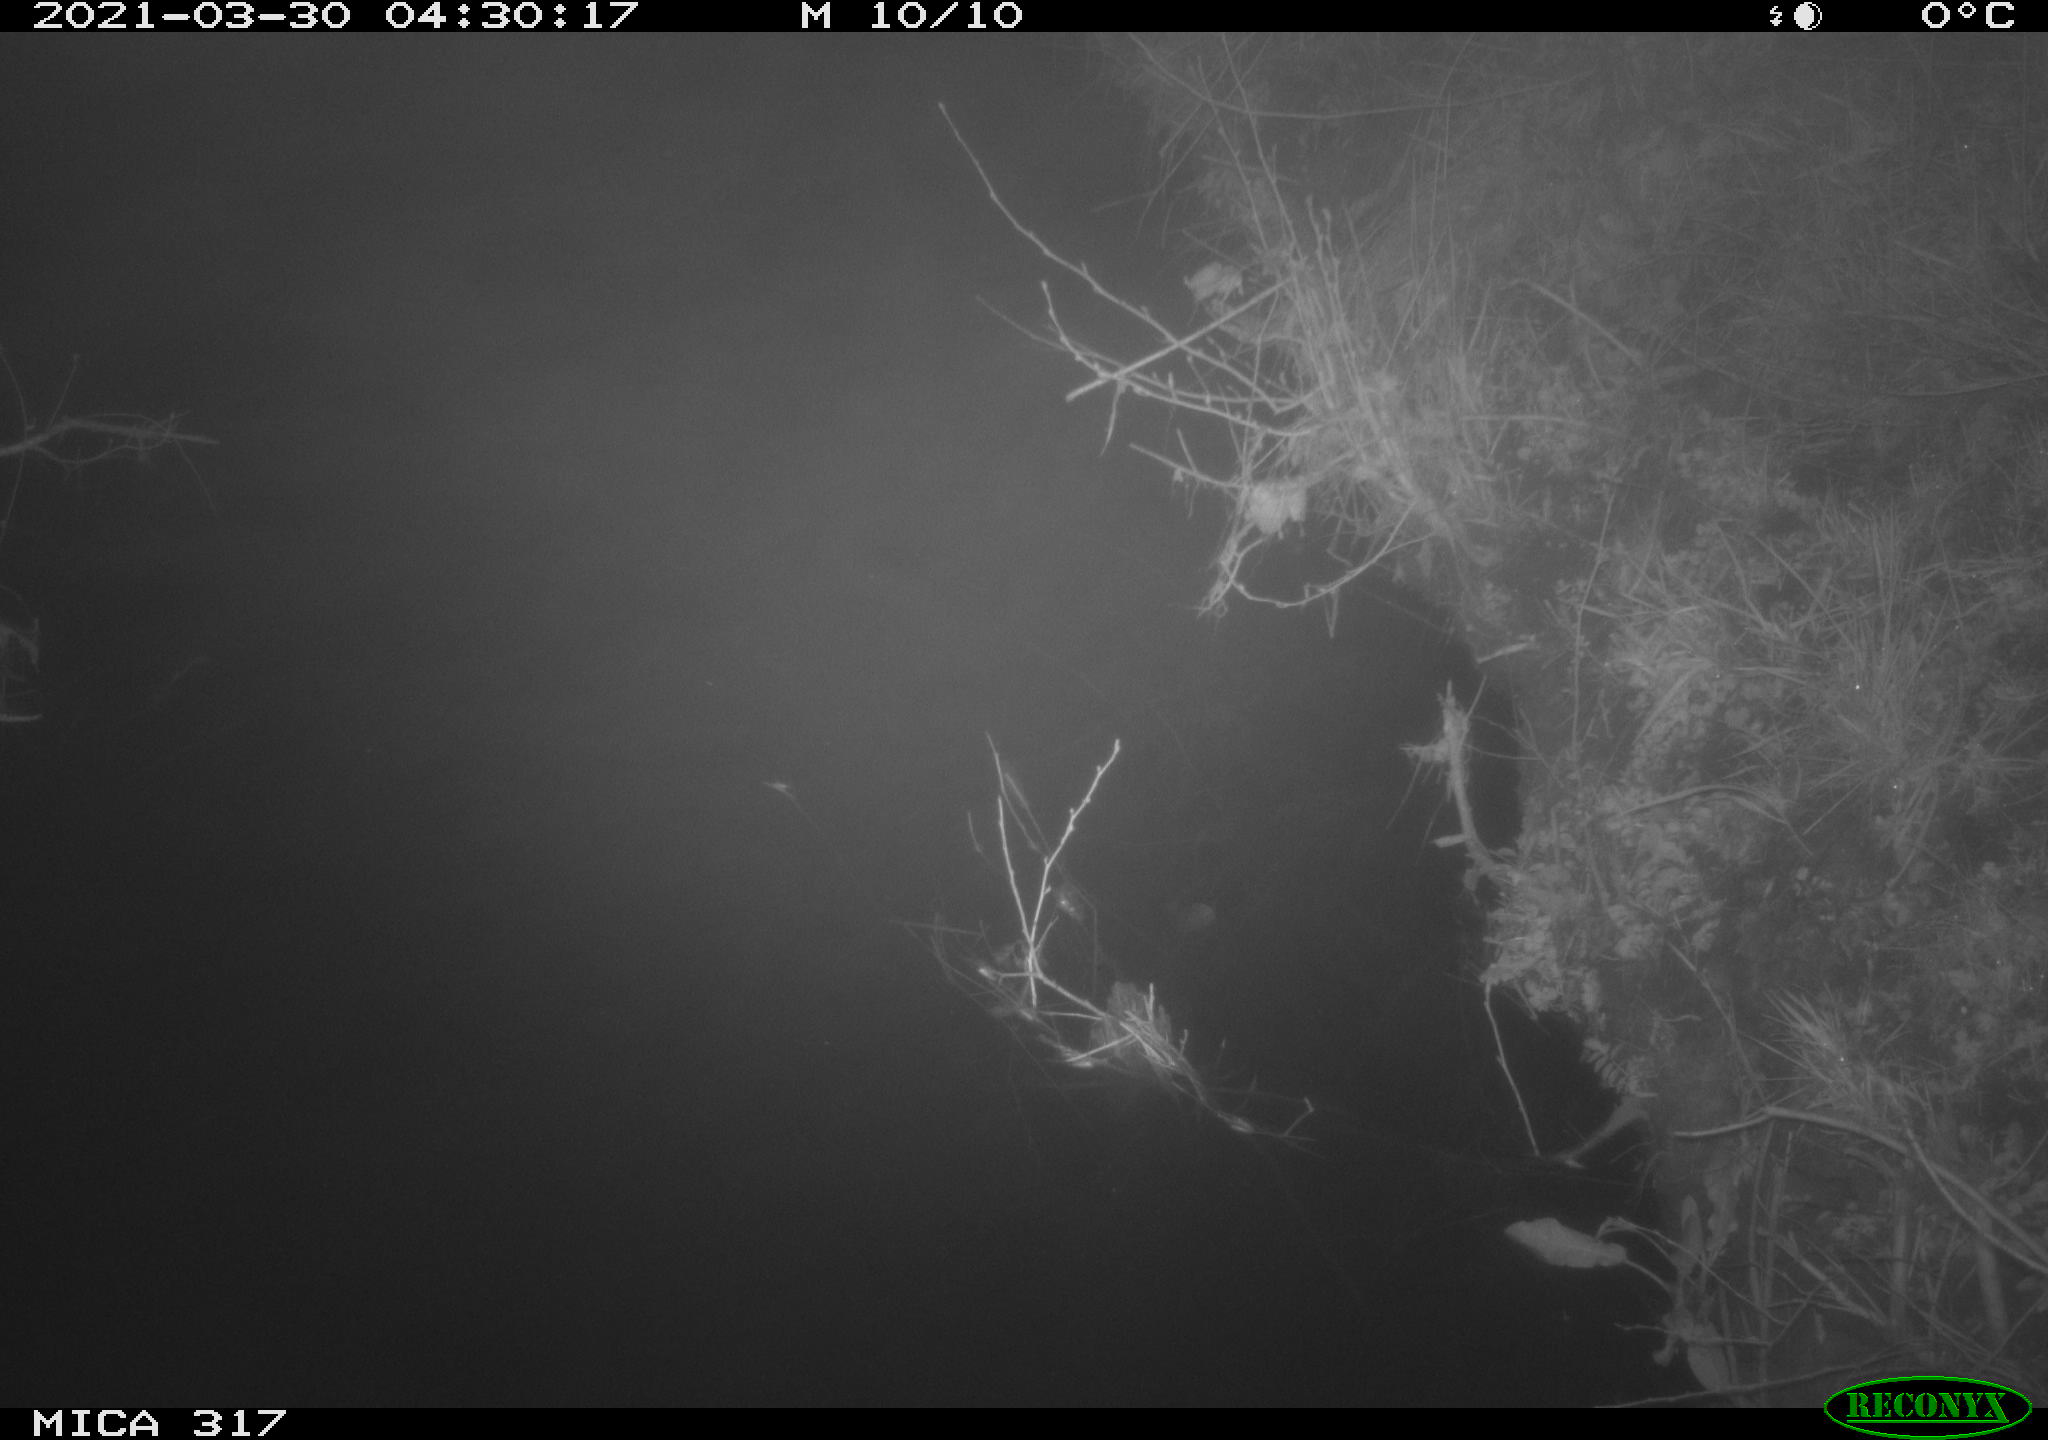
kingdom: Animalia
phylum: Chordata
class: Aves
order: Anseriformes
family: Anatidae
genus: Anas
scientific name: Anas platyrhynchos
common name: Mallard
